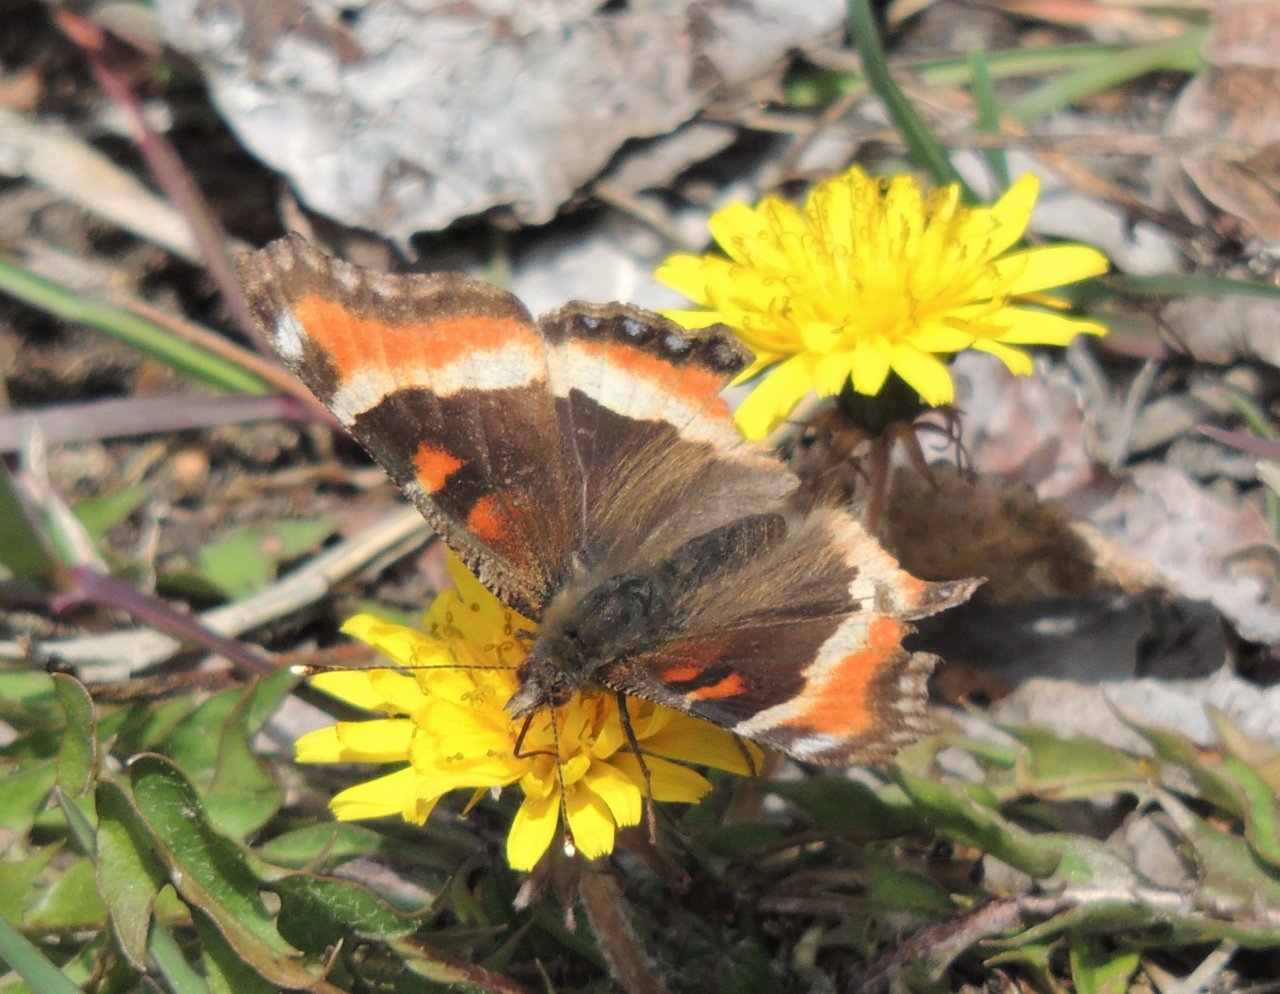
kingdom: Animalia
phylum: Arthropoda
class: Insecta
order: Lepidoptera
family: Nymphalidae
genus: Aglais
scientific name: Aglais milberti
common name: Milbert's Tortoiseshell
